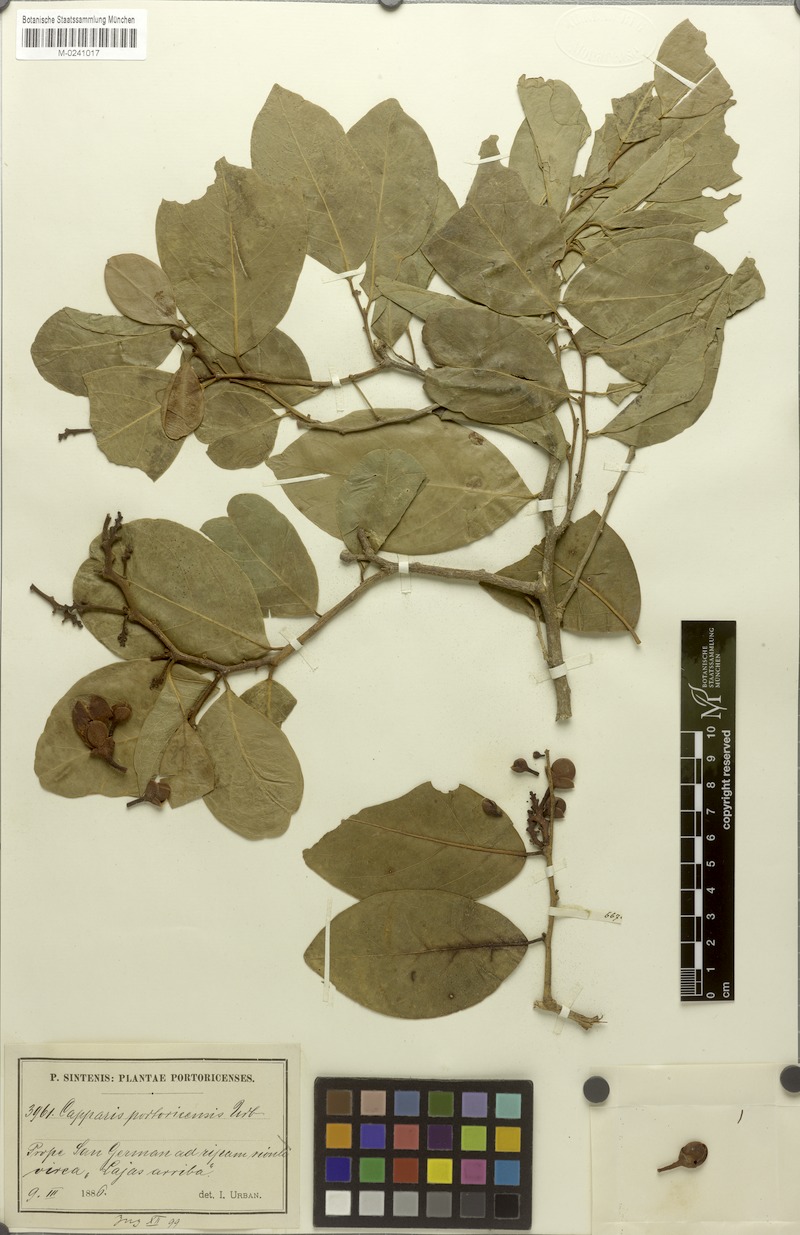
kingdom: Plantae
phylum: Tracheophyta
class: Magnoliopsida
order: Brassicales
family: Capparaceae
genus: Cynophalla
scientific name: Cynophalla amplissima
